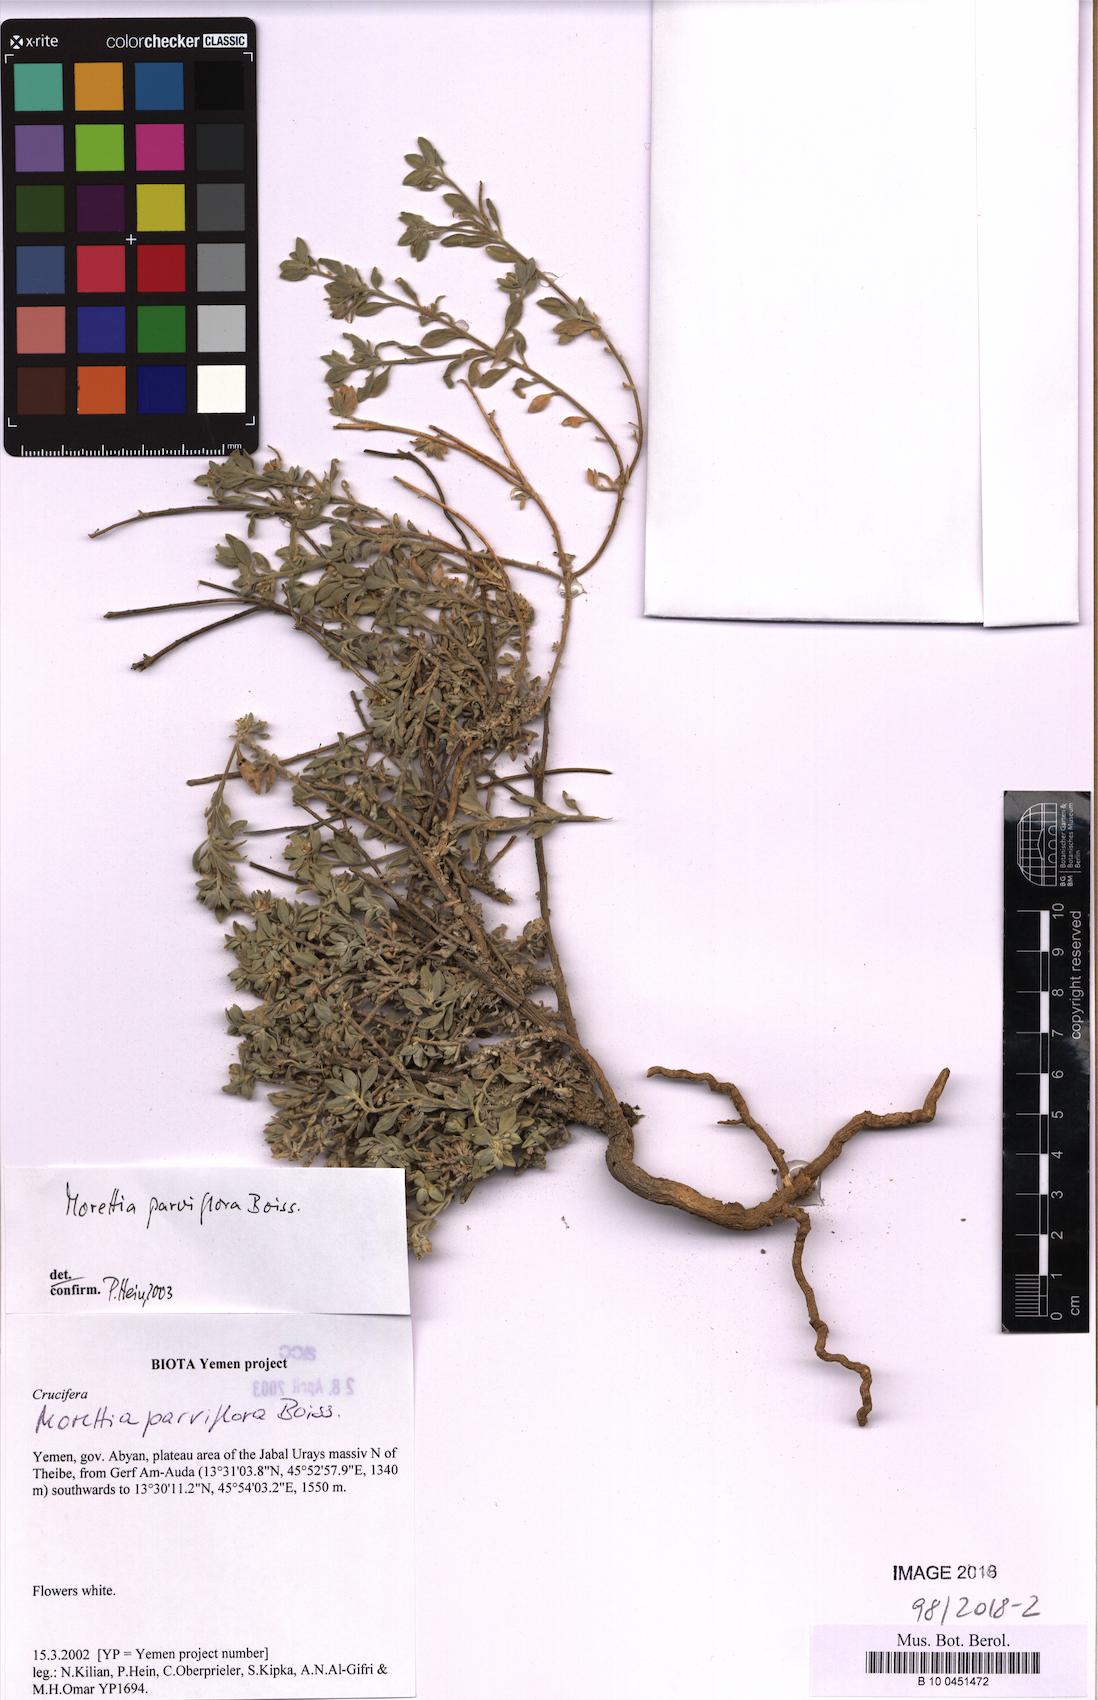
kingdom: Plantae
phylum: Tracheophyta
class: Magnoliopsida
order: Brassicales
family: Brassicaceae
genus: Morettia
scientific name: Morettia kilianii
